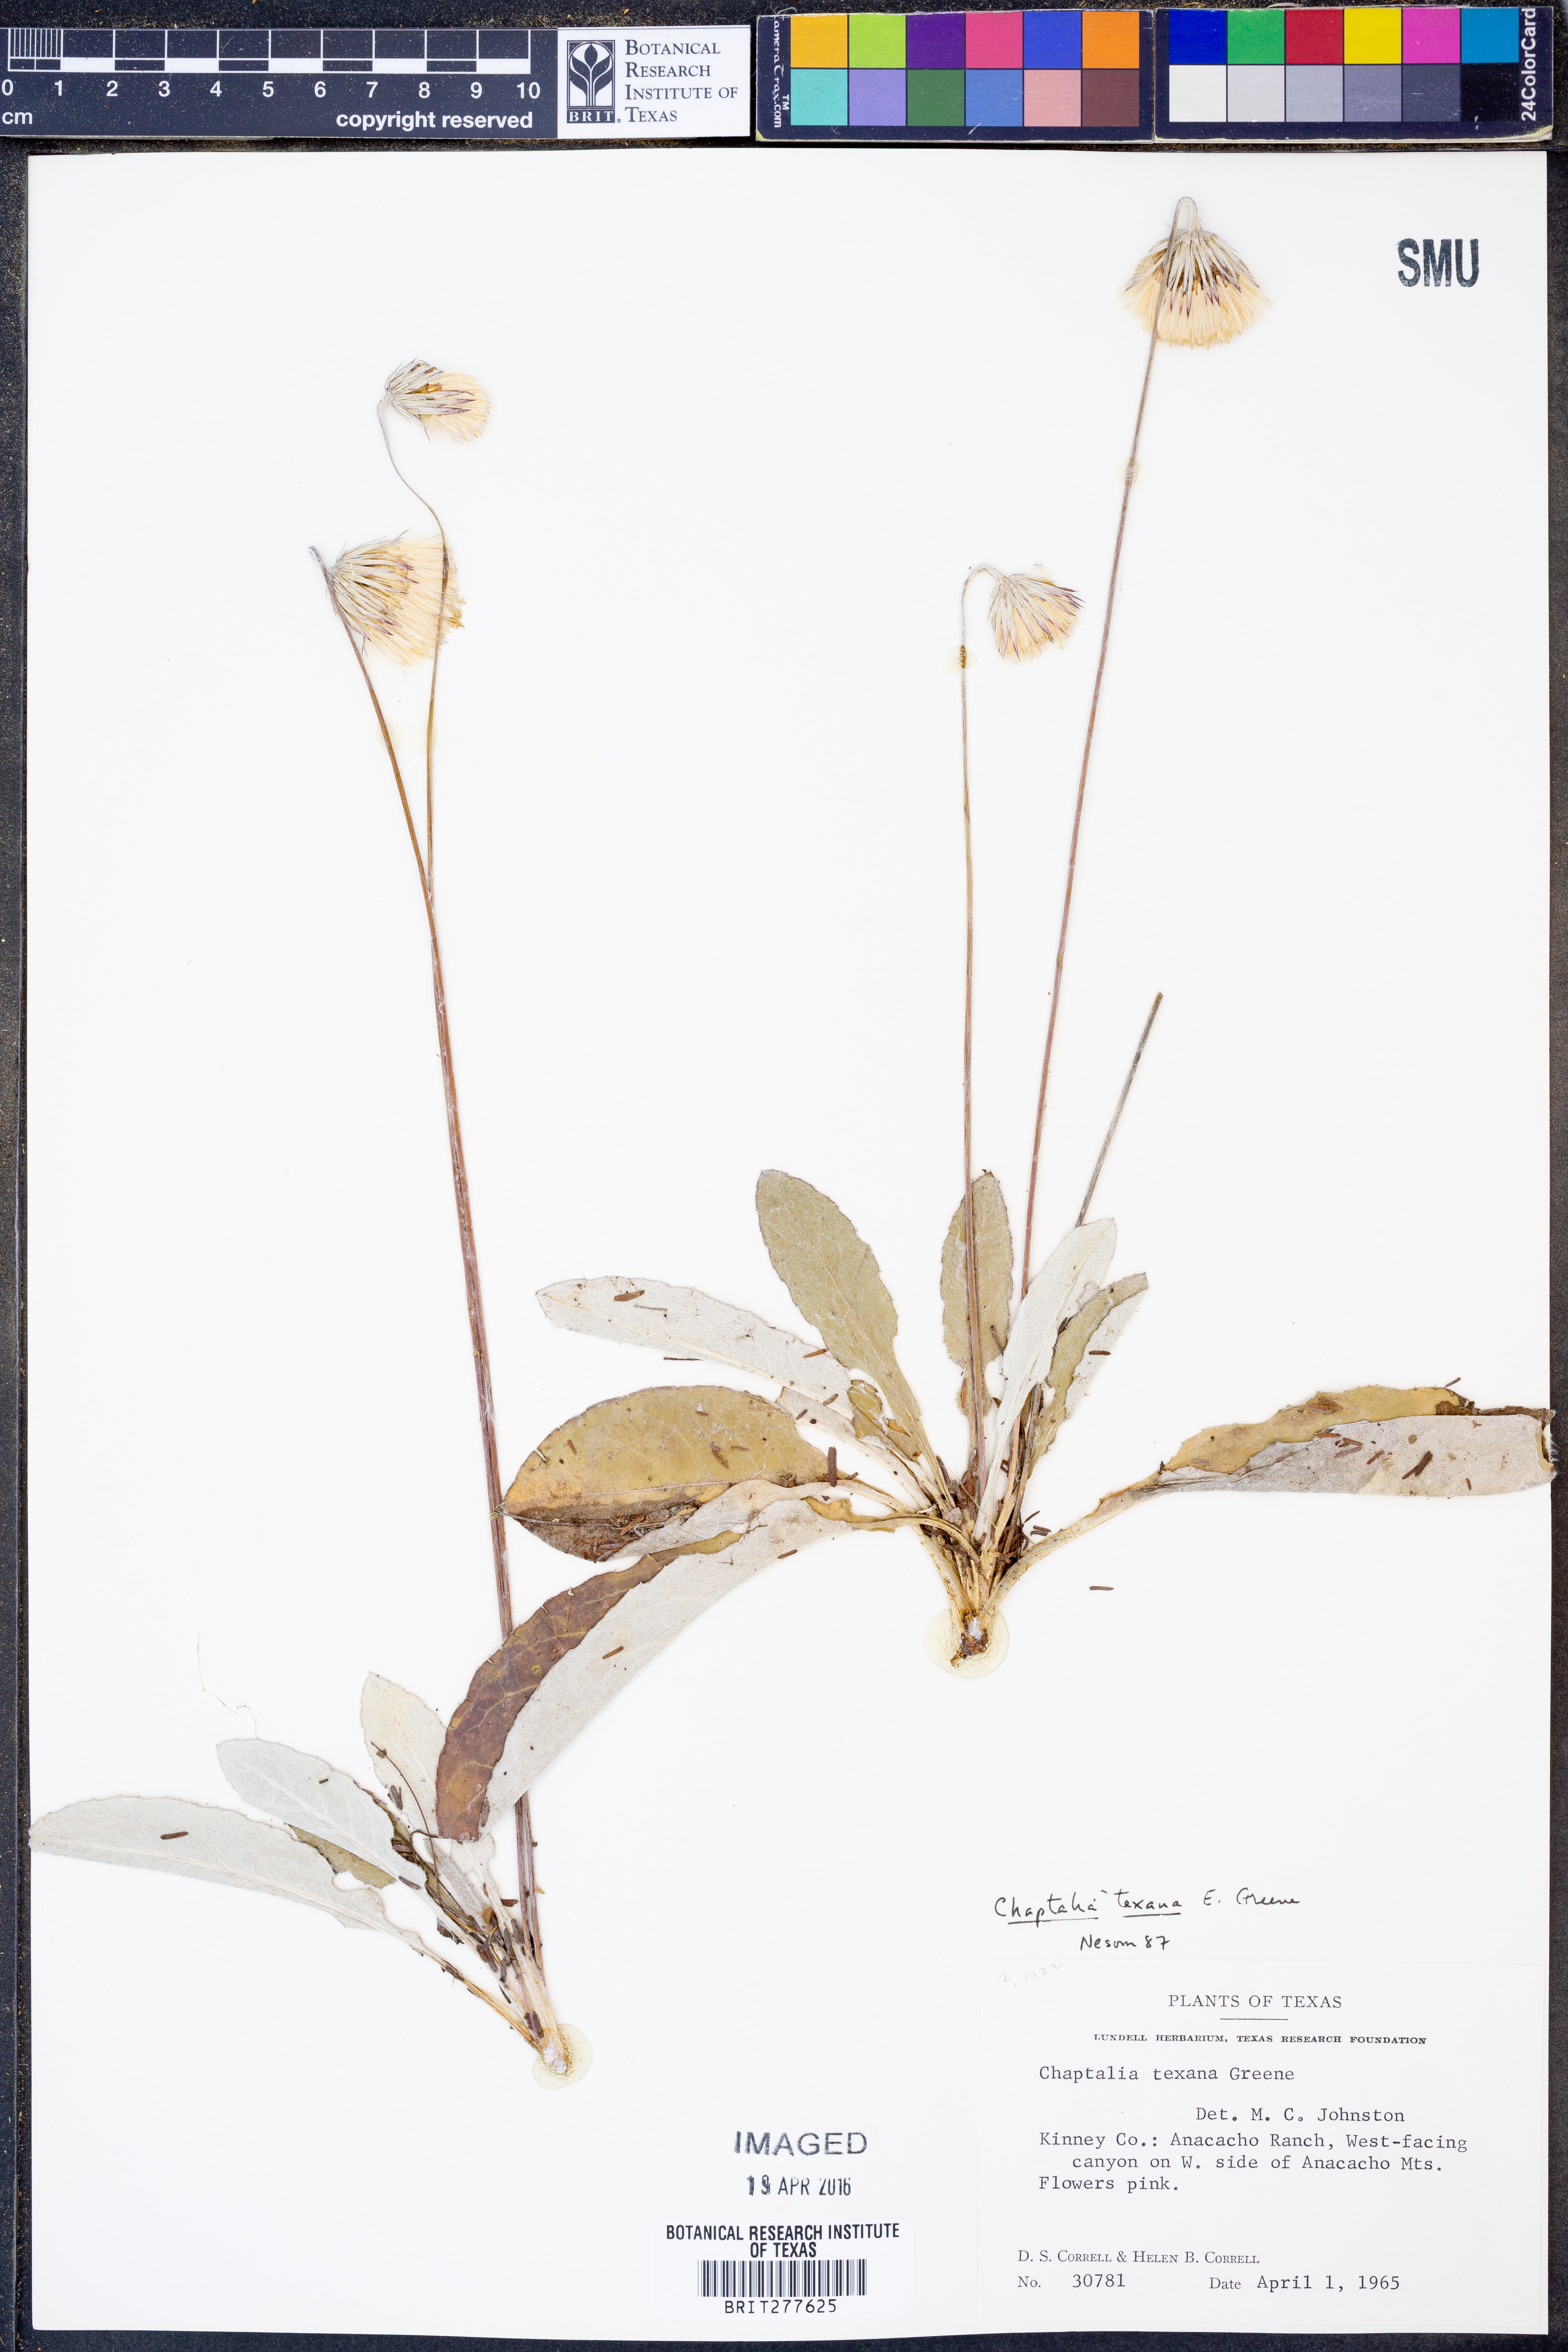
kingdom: Plantae
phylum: Tracheophyta
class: Magnoliopsida
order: Asterales
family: Asteraceae
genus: Chaptalia
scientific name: Chaptalia texana
